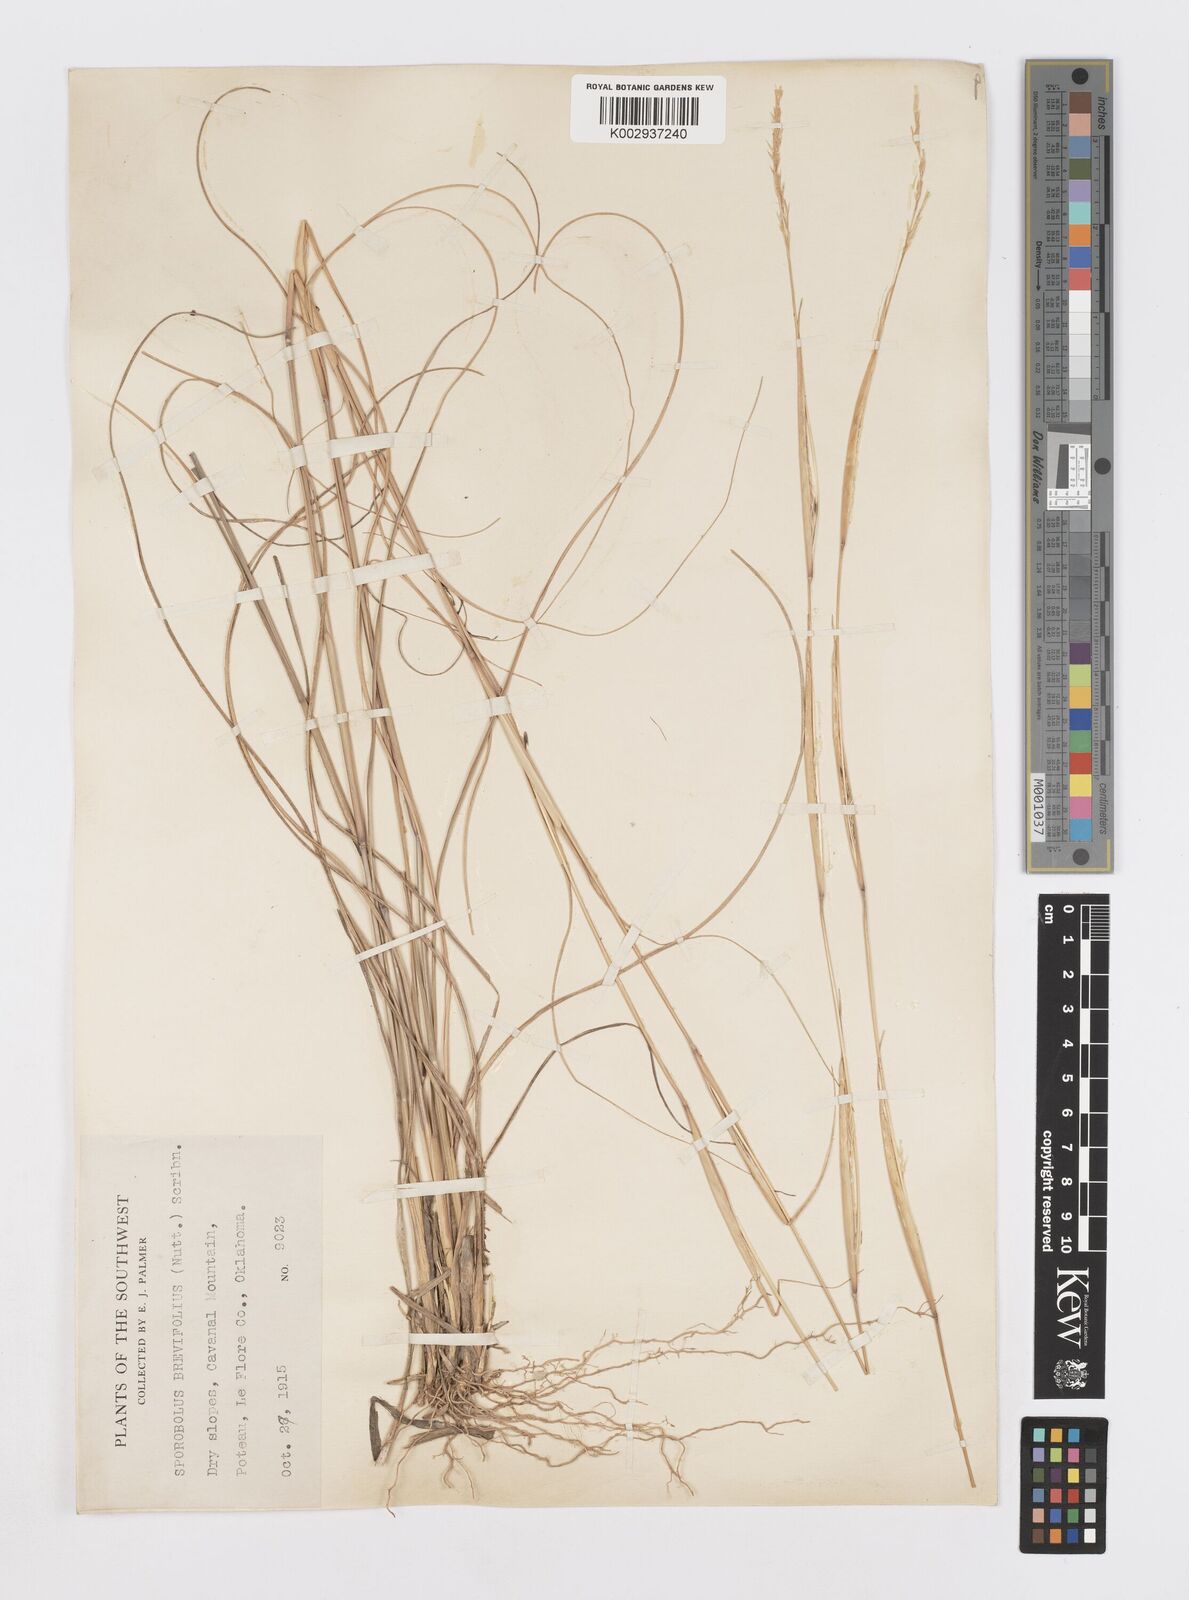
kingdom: Plantae
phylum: Tracheophyta
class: Liliopsida
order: Poales
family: Poaceae
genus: Sporobolus
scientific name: Sporobolus clandestinus
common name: Hidden dropseed
